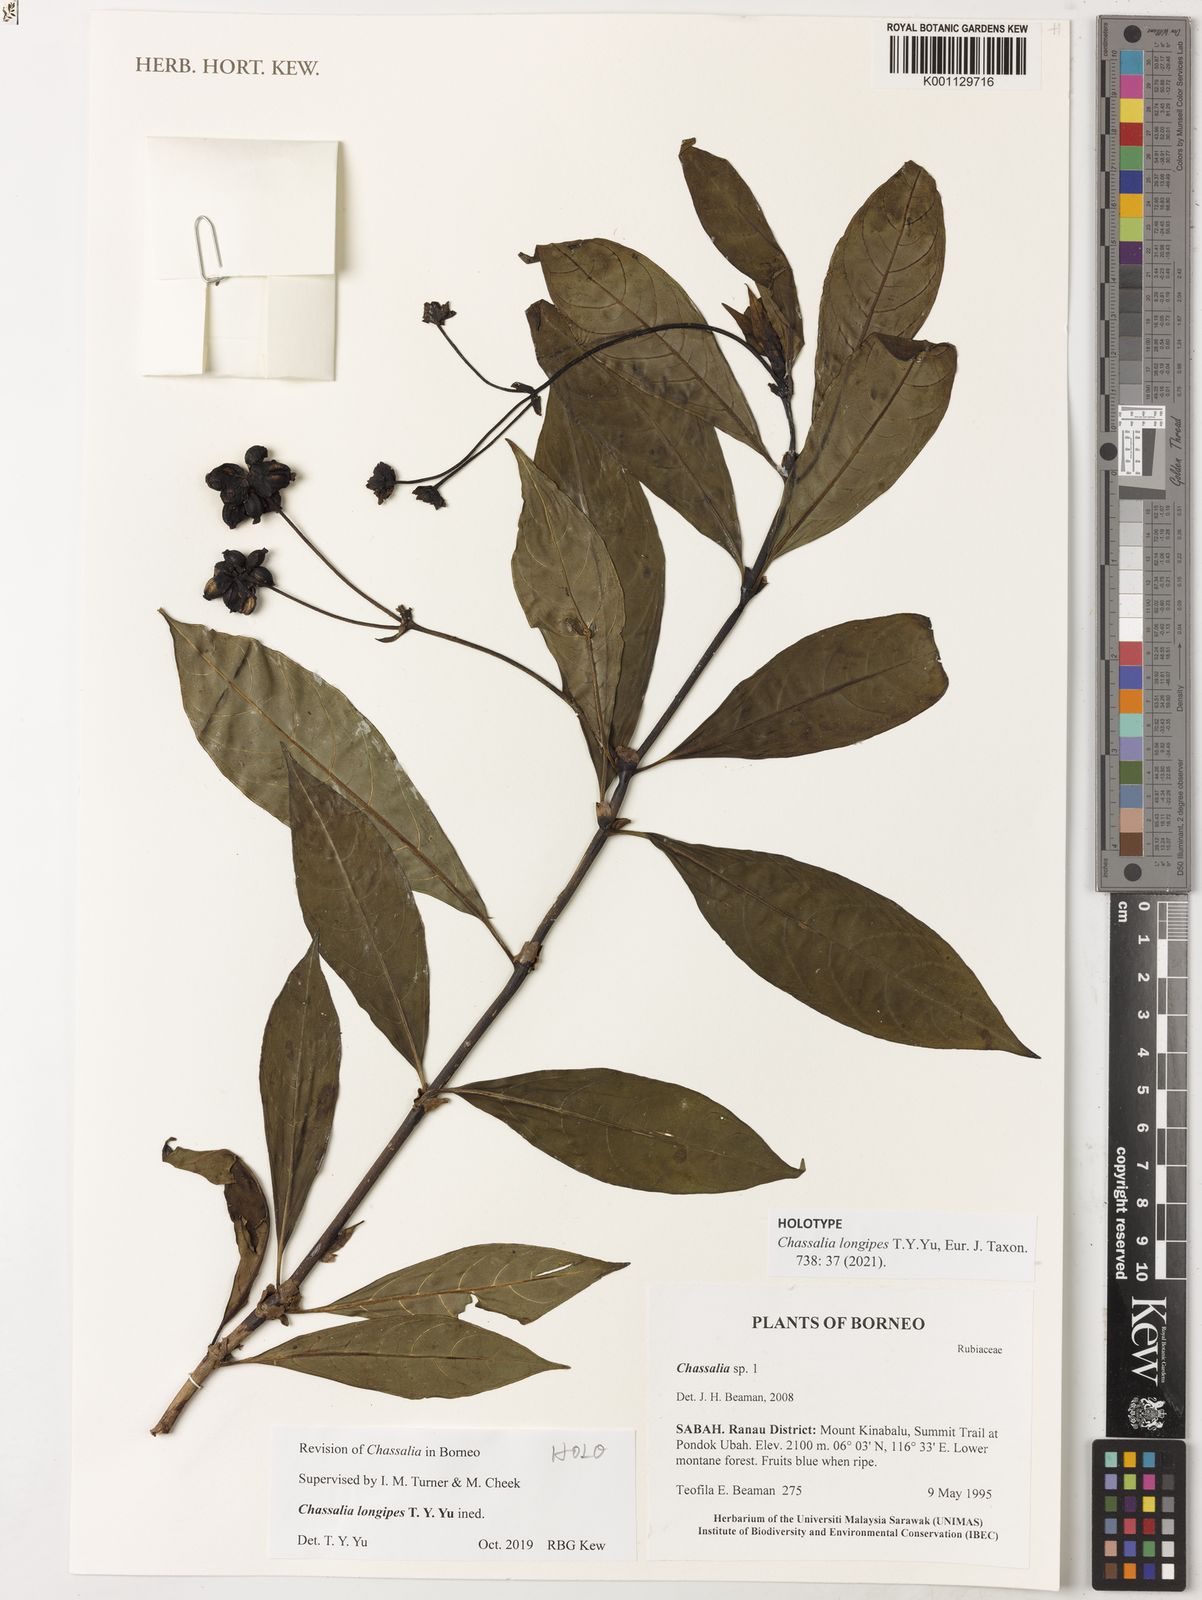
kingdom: Plantae
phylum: Tracheophyta
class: Magnoliopsida
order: Gentianales
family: Rubiaceae
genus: Chassalia
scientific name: Chassalia
